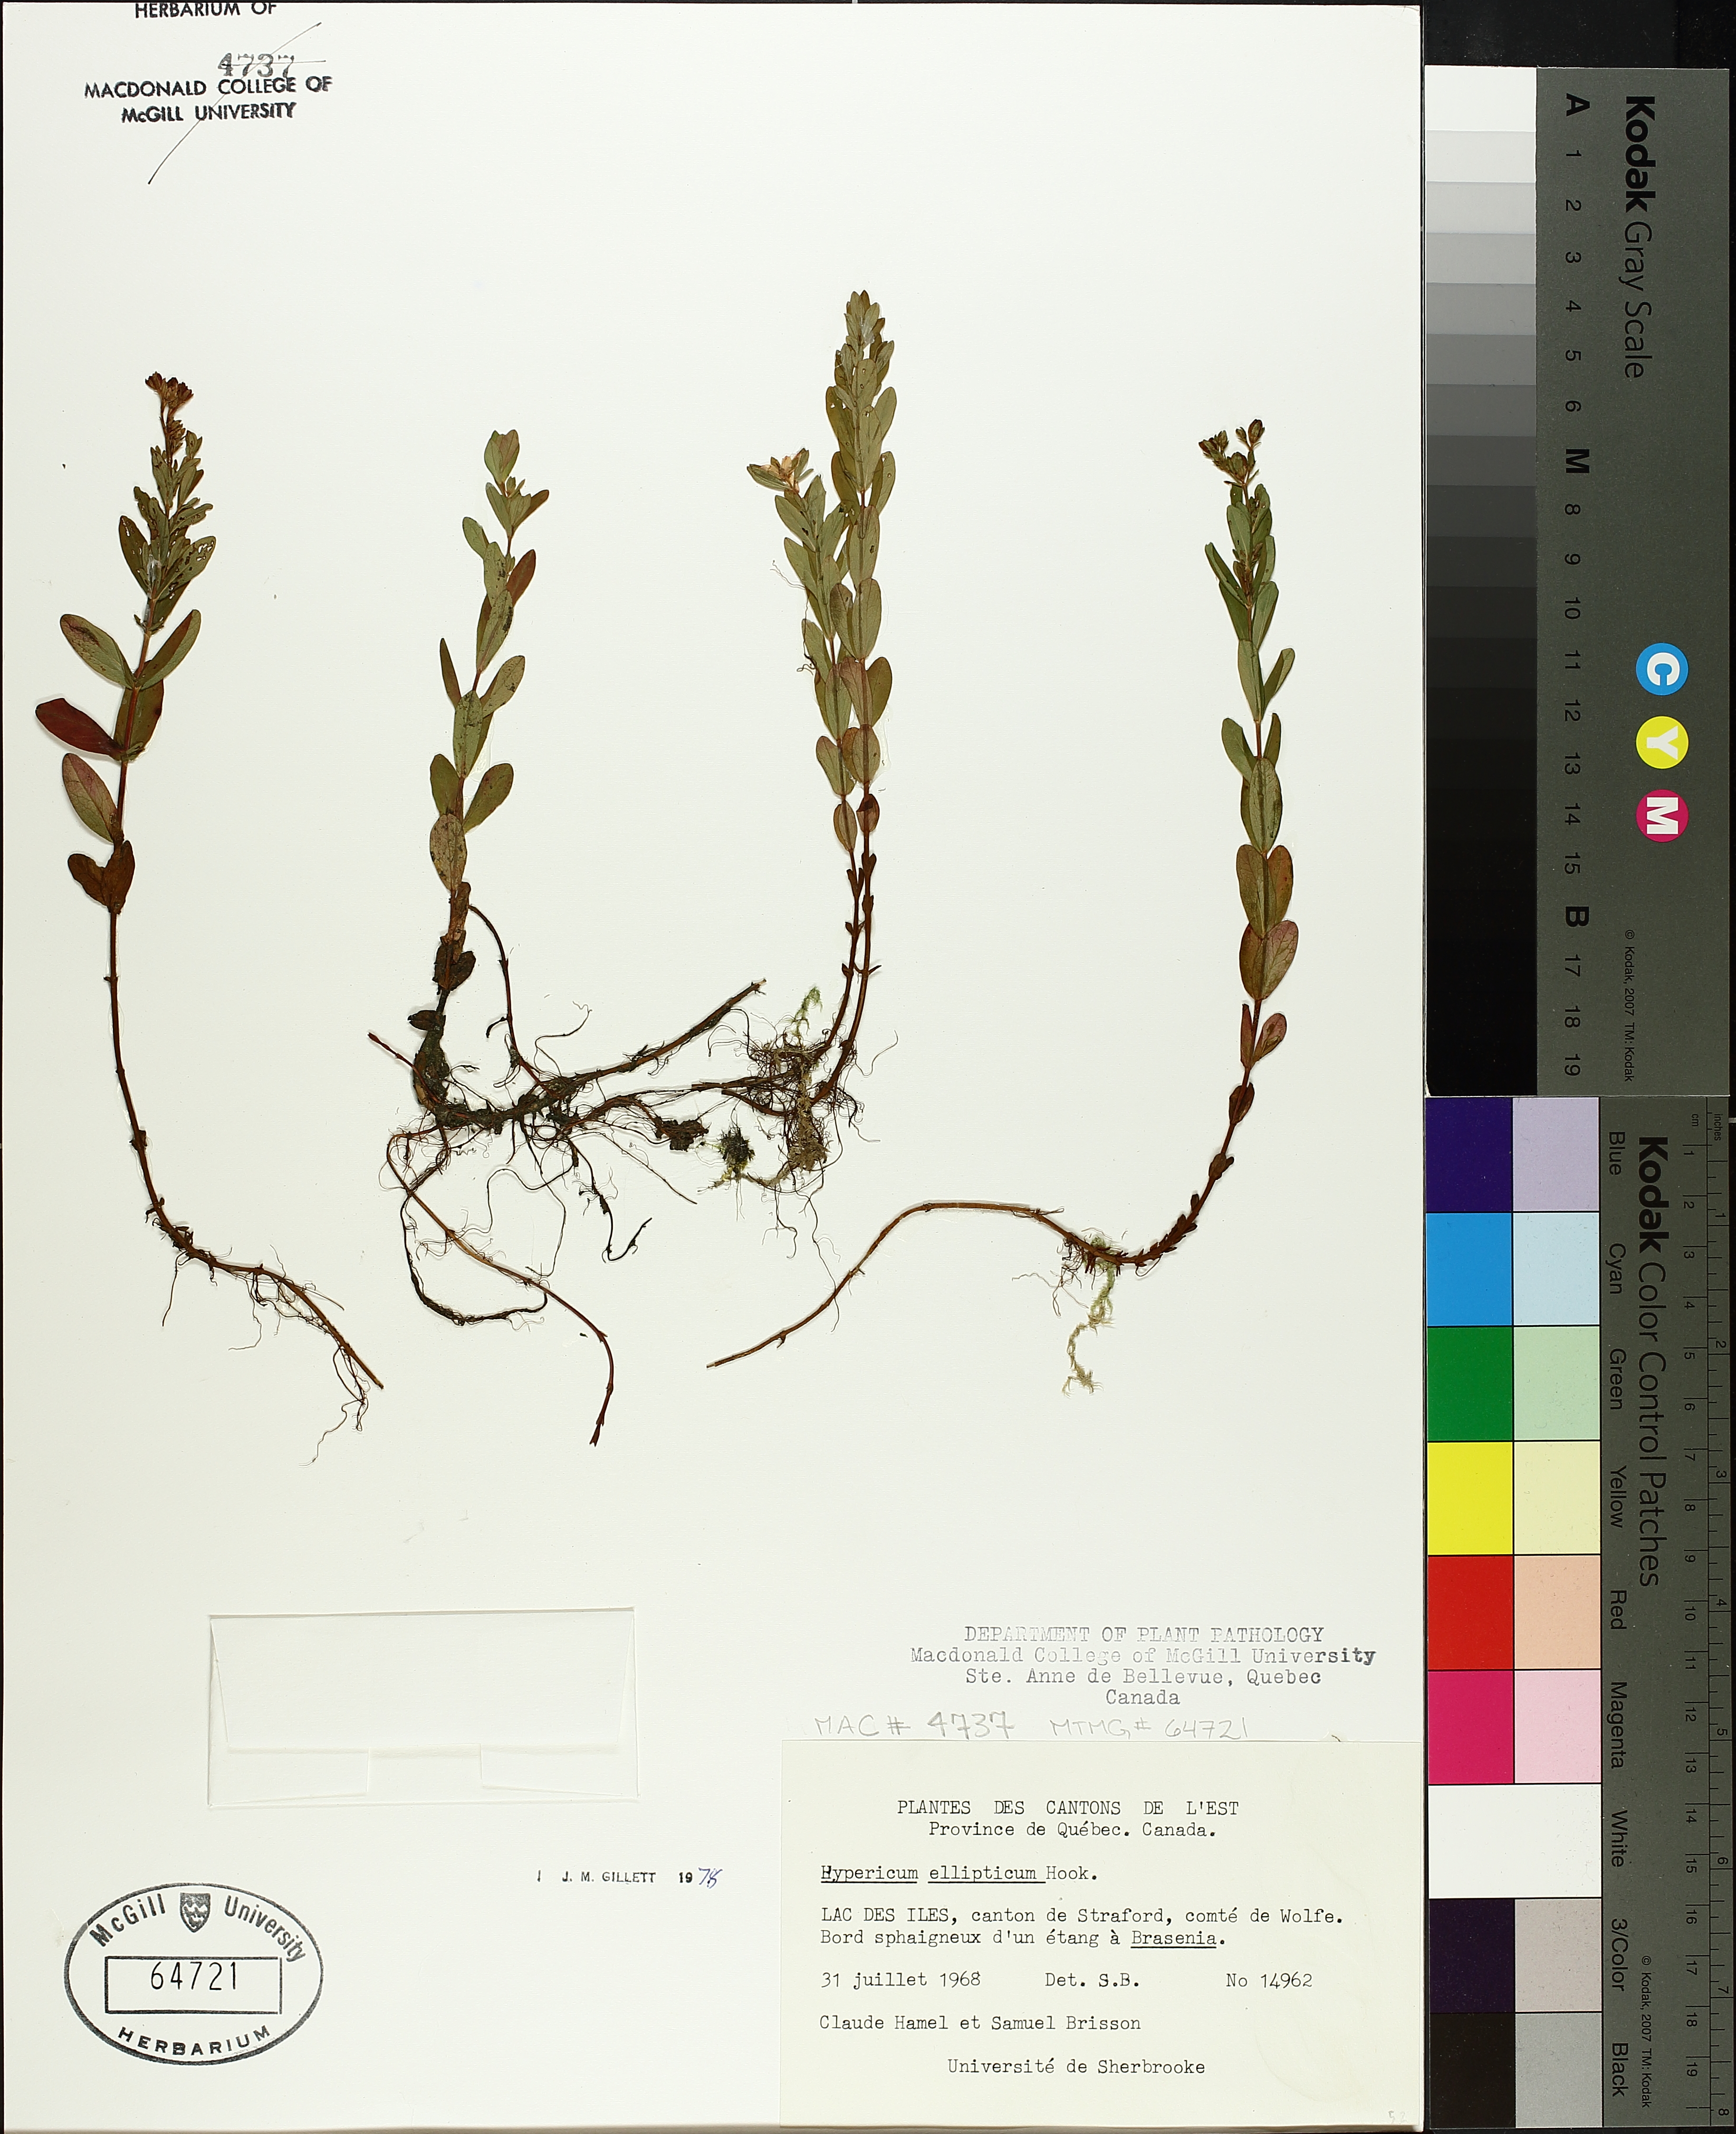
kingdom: Plantae
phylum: Tracheophyta
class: Magnoliopsida
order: Malpighiales
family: Hypericaceae
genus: Hypericum
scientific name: Hypericum ellipticum
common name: Elliptic st. john's-wort
